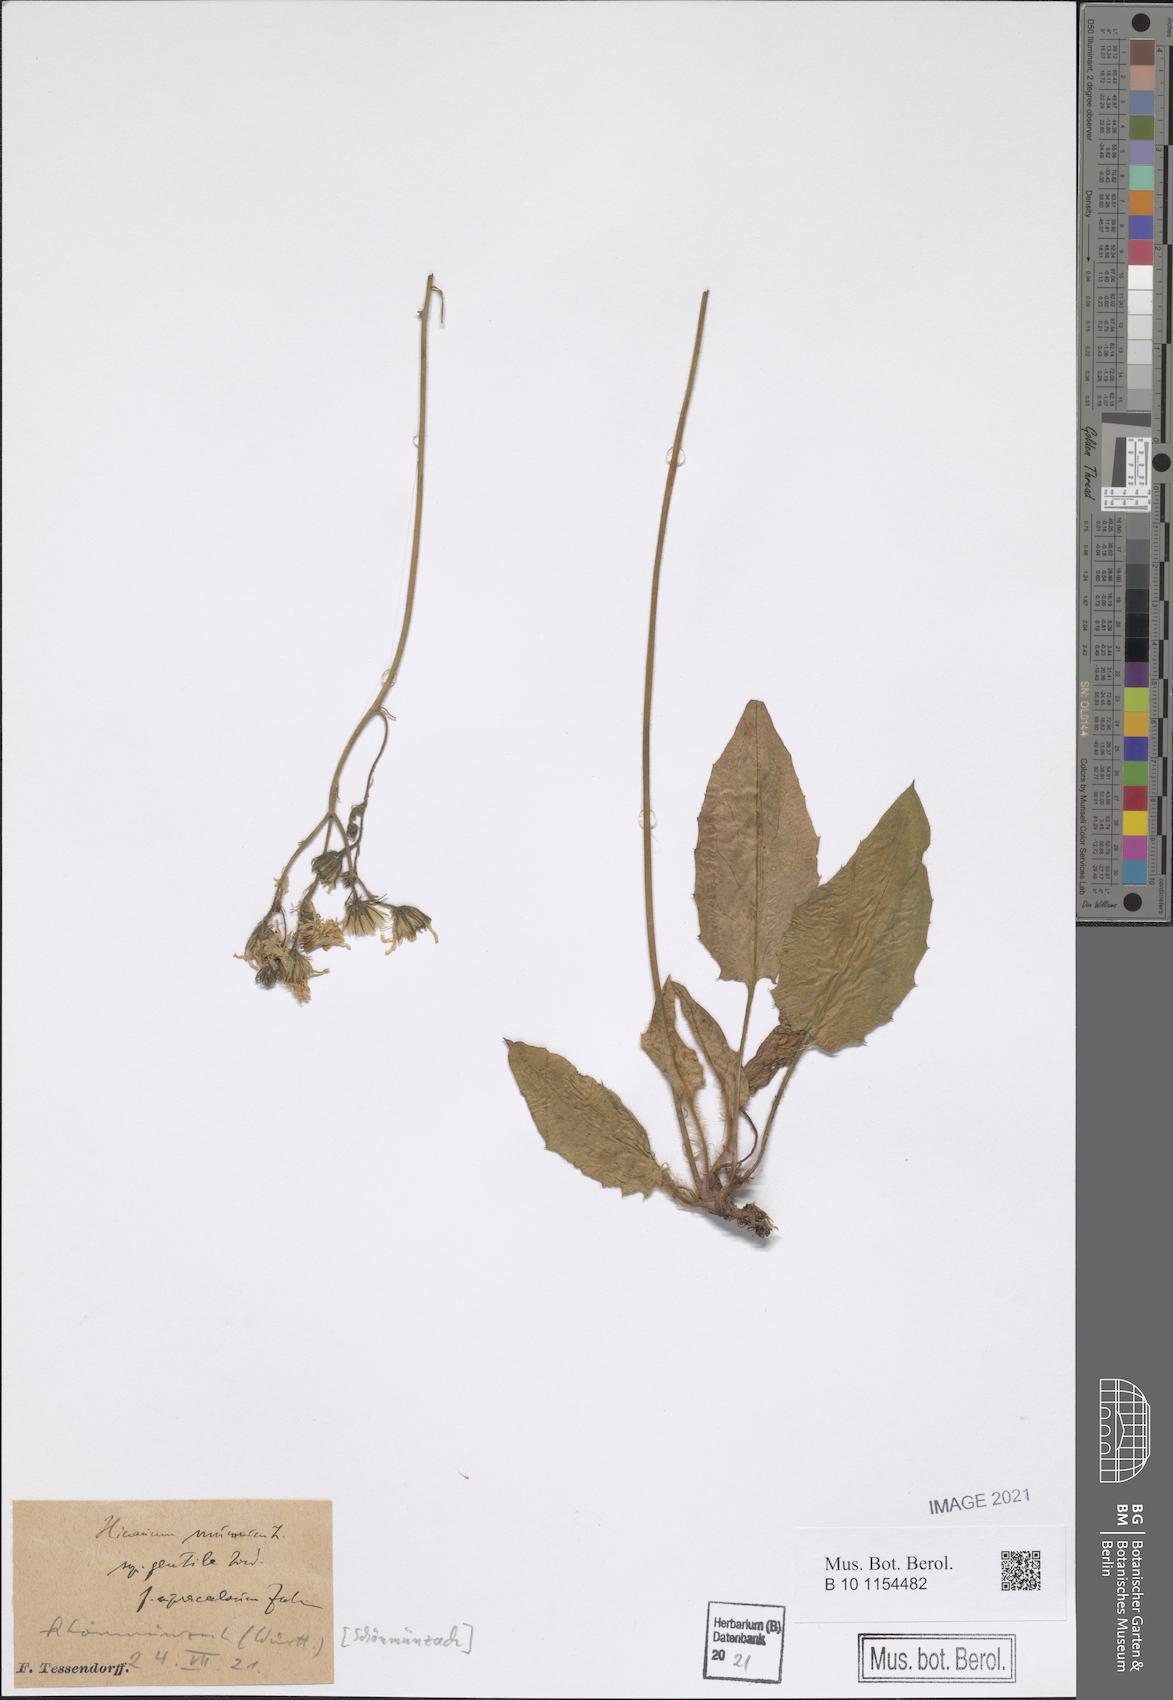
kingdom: Plantae
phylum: Tracheophyta
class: Magnoliopsida
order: Asterales
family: Asteraceae
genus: Hieracium
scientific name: Hieracium murorum
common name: Wall hawkweed
